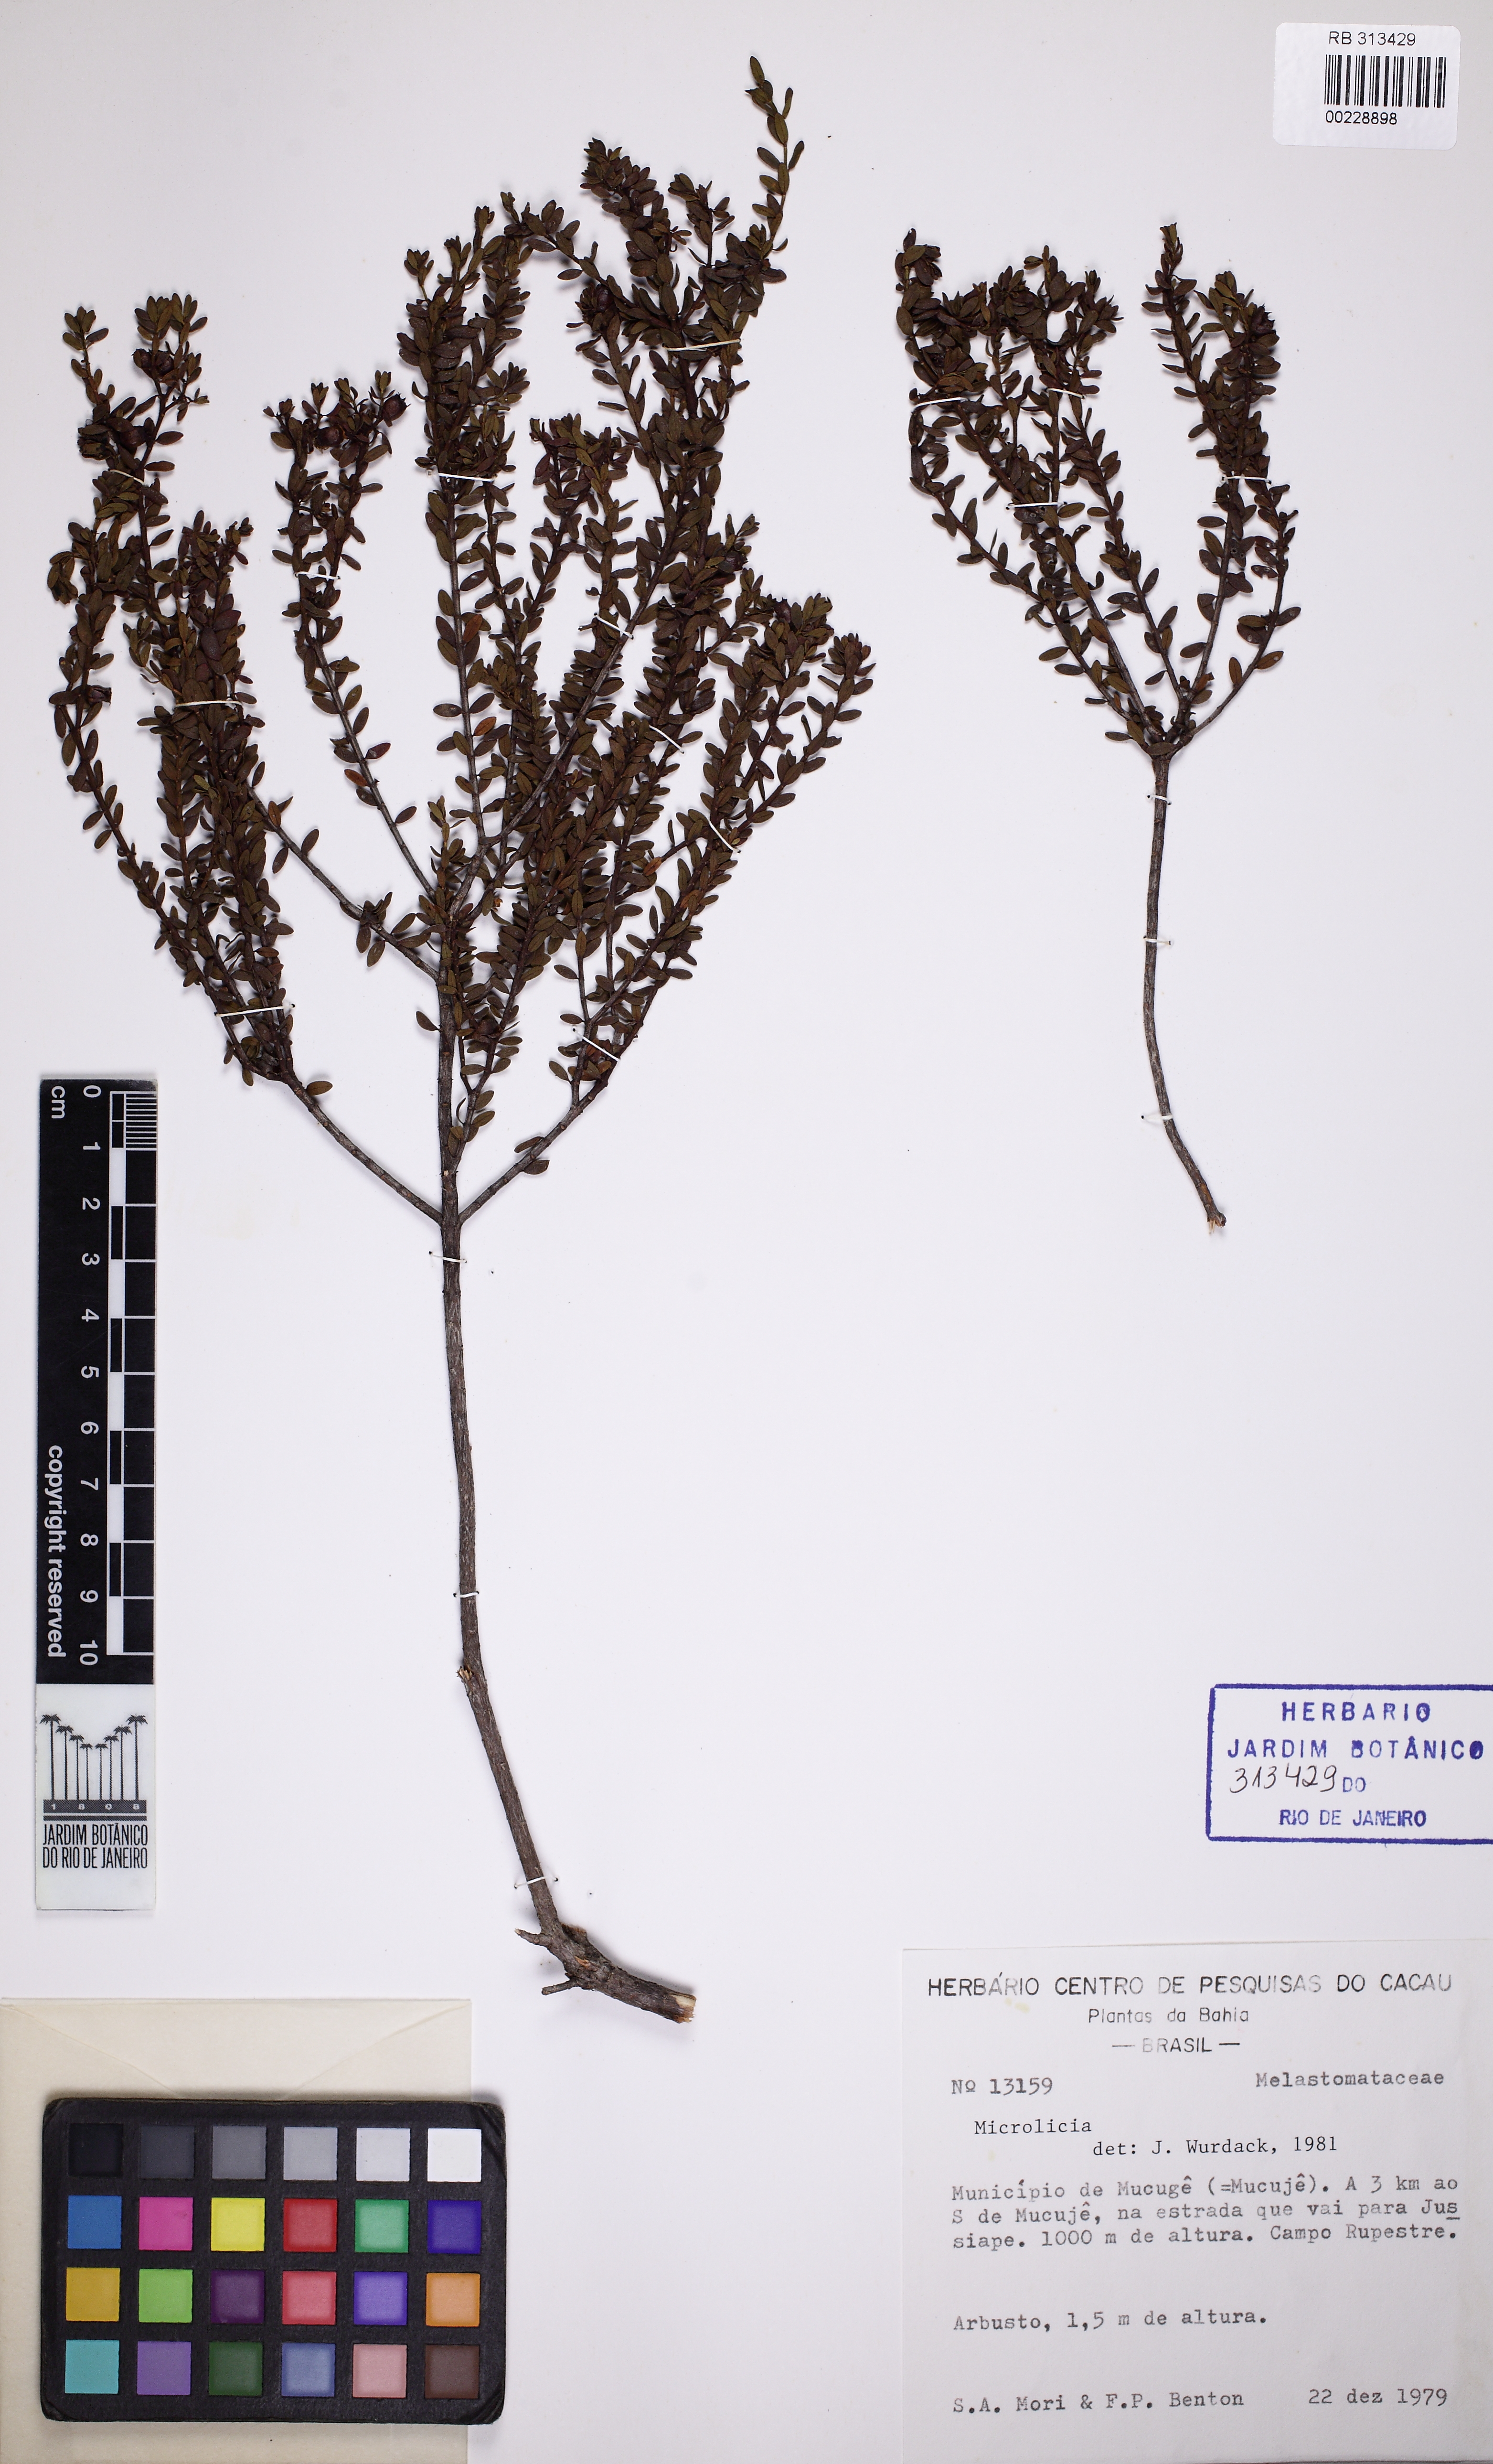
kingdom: Plantae
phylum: Tracheophyta
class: Magnoliopsida
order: Myrtales
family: Melastomataceae
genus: Microlicia
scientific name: Microlicia
